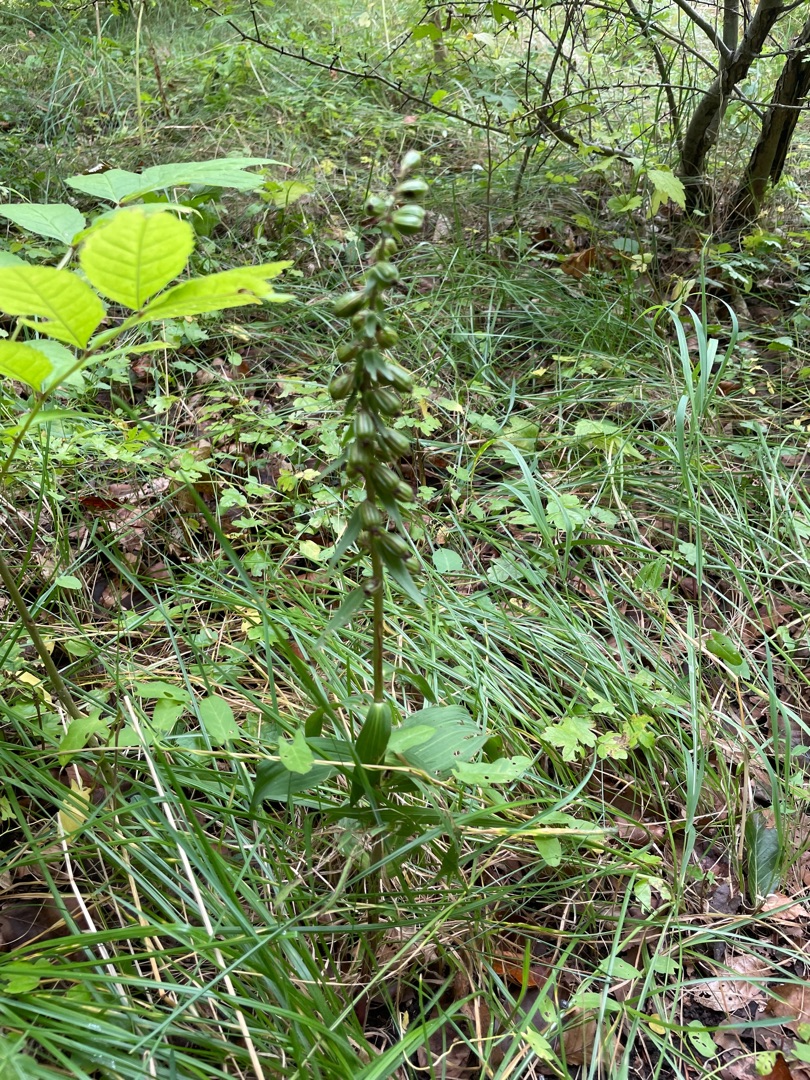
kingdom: Plantae
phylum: Tracheophyta
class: Liliopsida
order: Asparagales
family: Orchidaceae
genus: Epipactis
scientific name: Epipactis helleborine
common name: Skov-hullæbe
